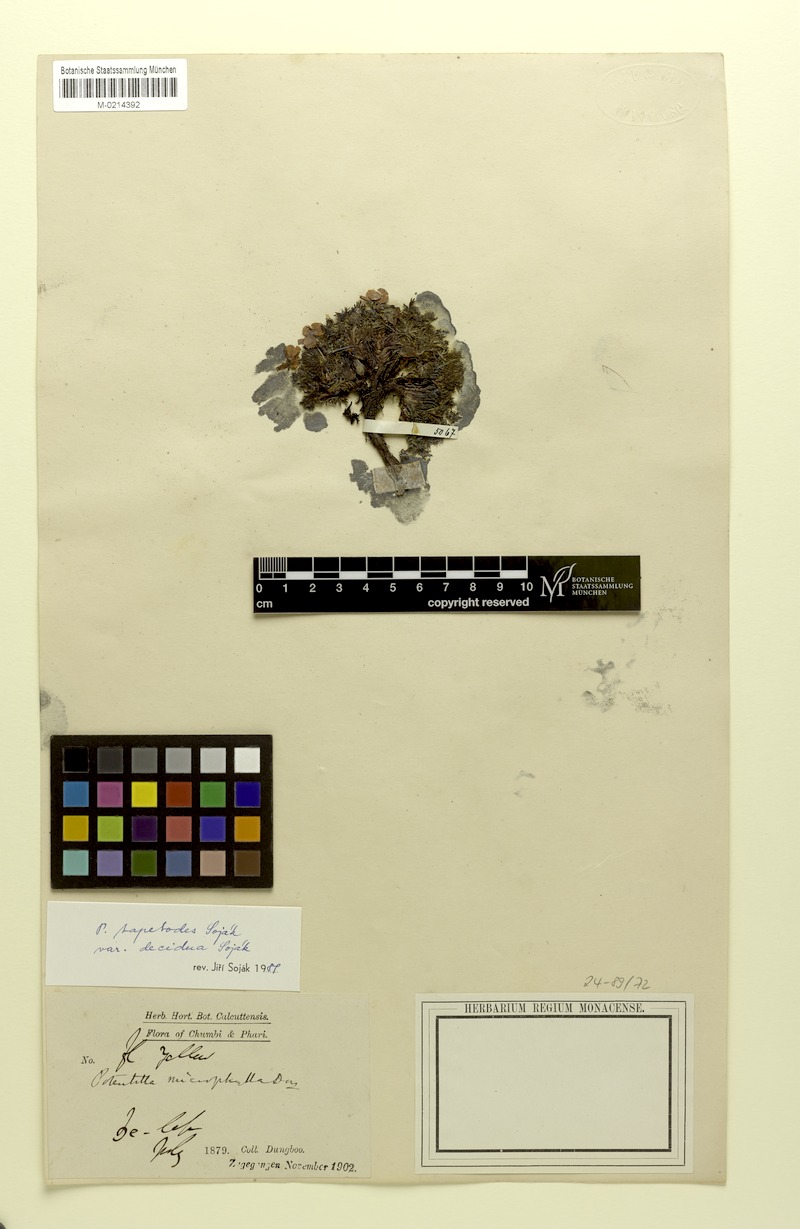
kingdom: Plantae
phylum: Tracheophyta
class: Magnoliopsida
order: Rosales
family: Rosaceae
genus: Argentina
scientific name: Argentina tapetodes
